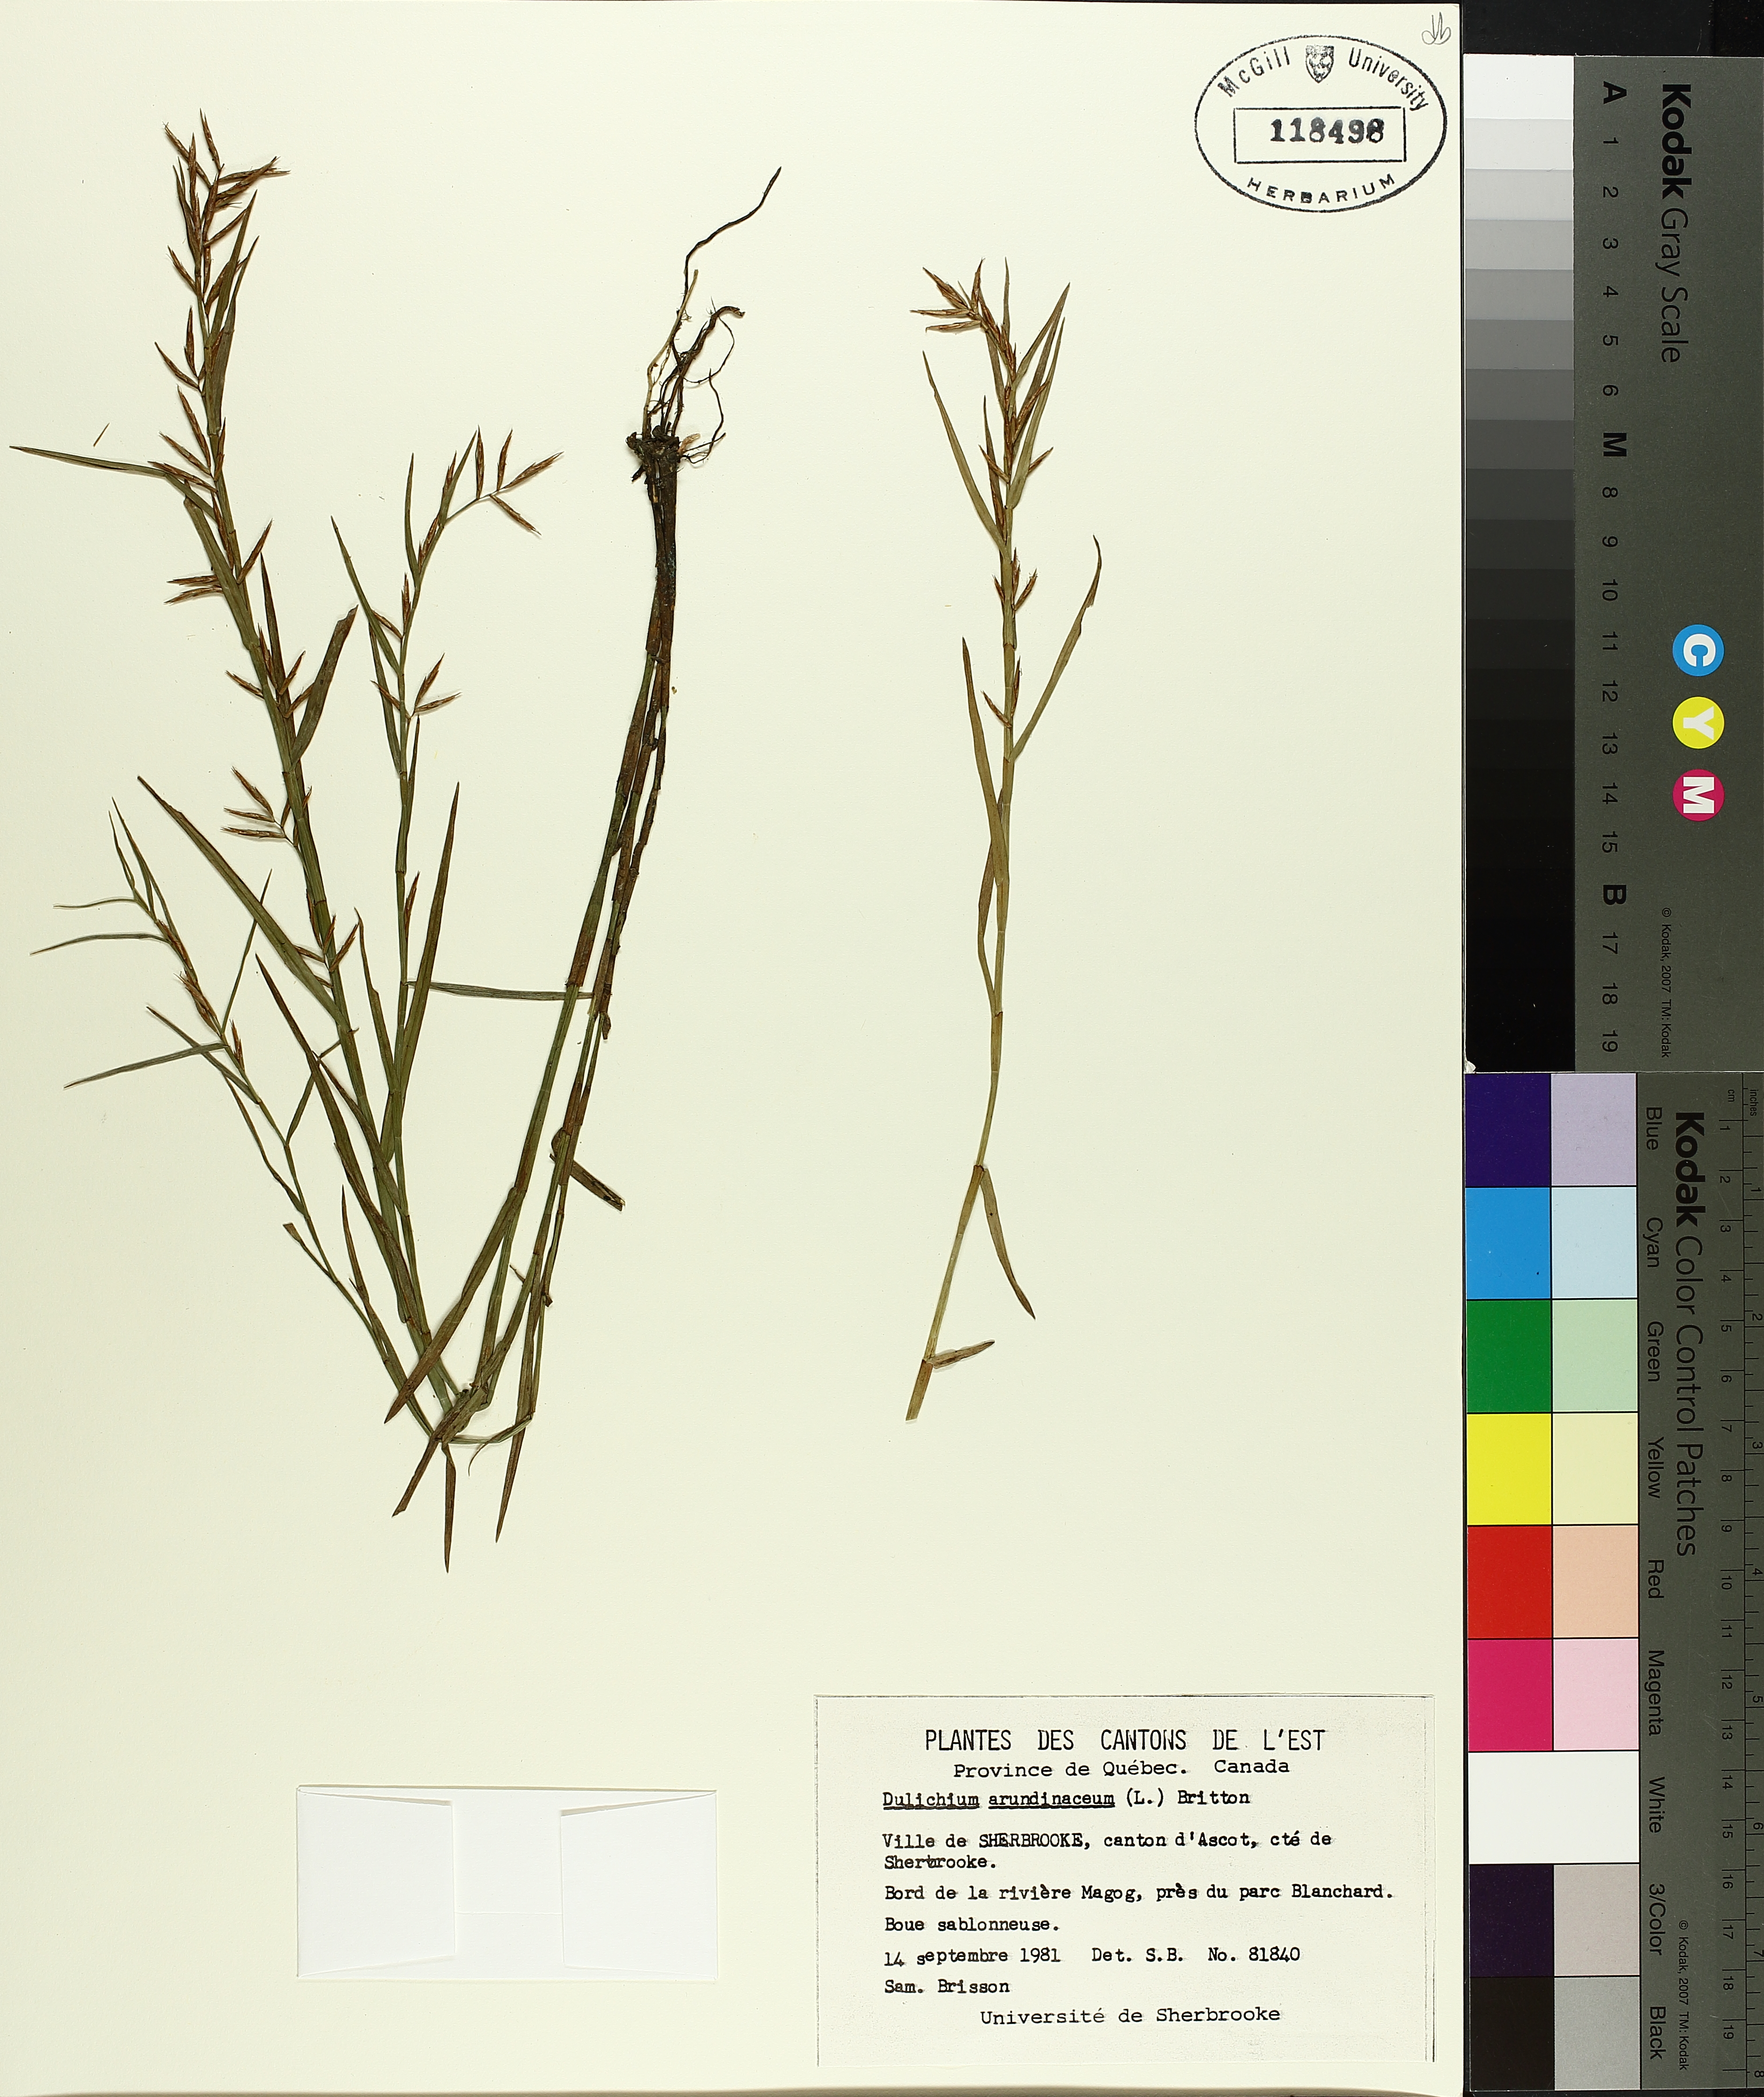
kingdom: Plantae
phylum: Tracheophyta
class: Liliopsida
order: Poales
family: Cyperaceae
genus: Dulichium
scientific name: Dulichium arundinaceum
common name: Three-way sedge
